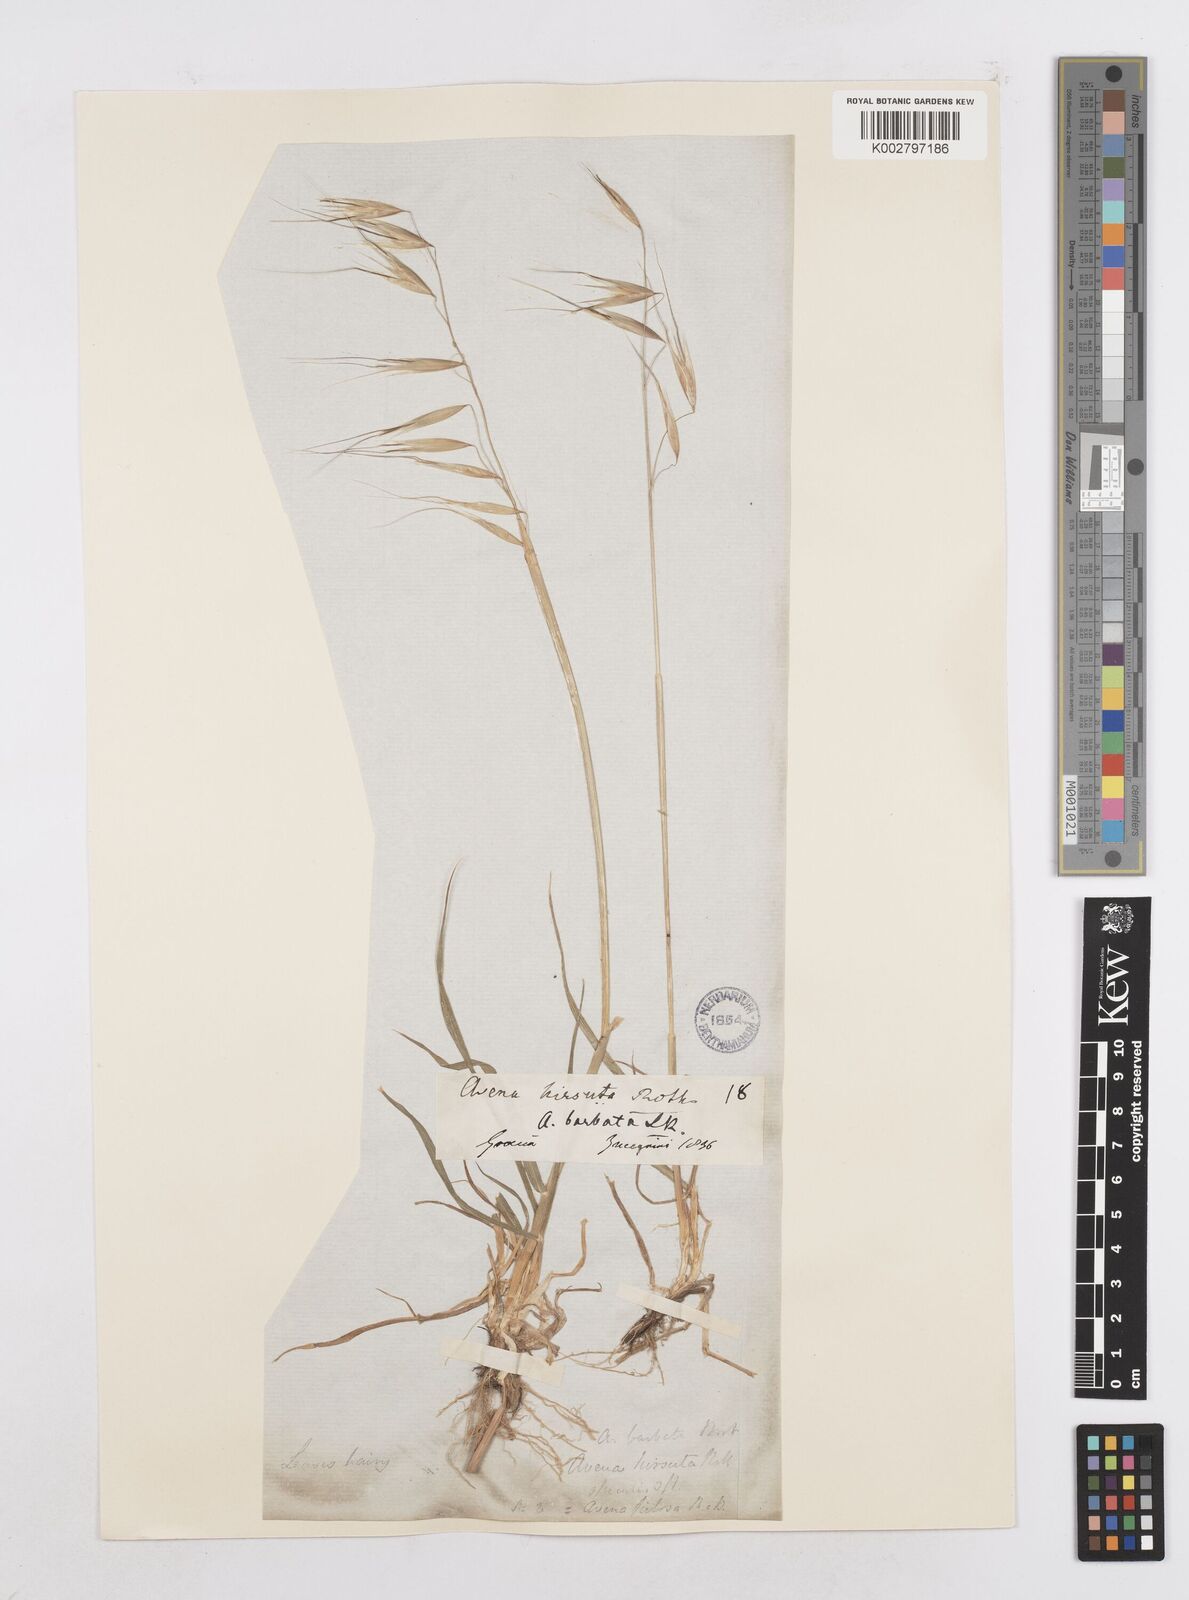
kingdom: Plantae
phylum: Tracheophyta
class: Liliopsida
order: Poales
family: Poaceae
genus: Avena
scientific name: Avena
